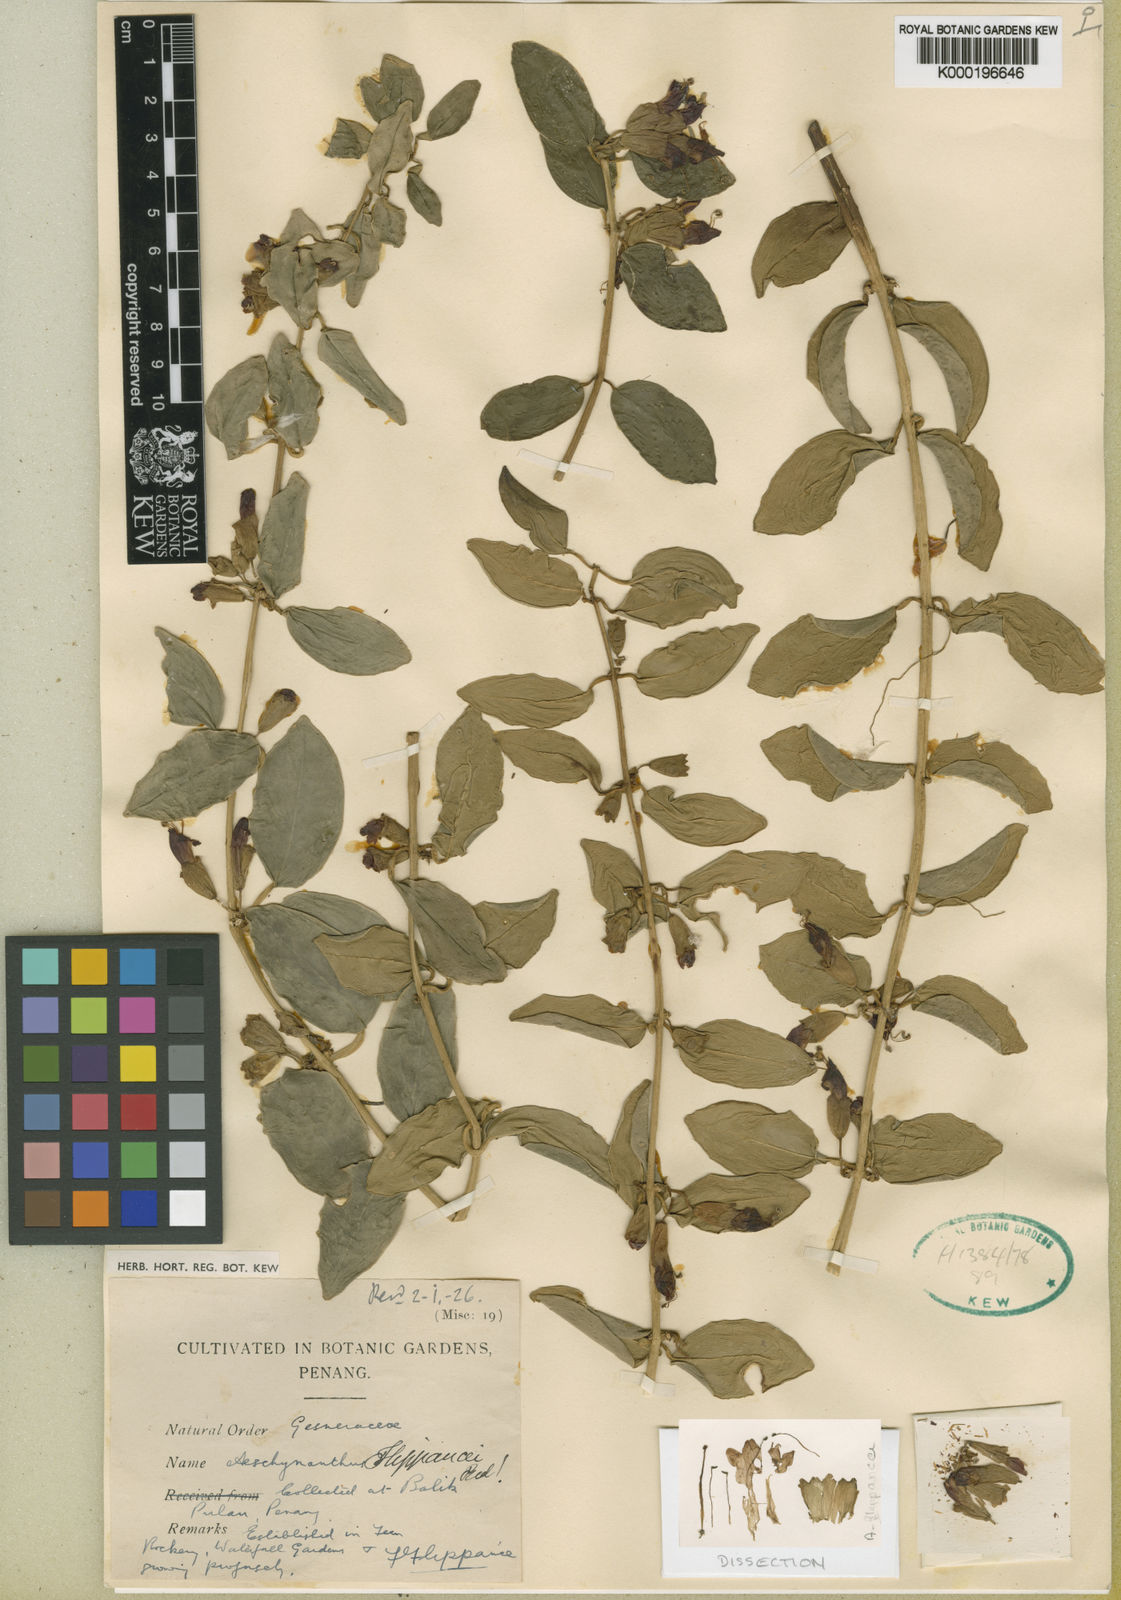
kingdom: Plantae
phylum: Tracheophyta
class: Magnoliopsida
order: Lamiales
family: Gesneriaceae
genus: Aeschynanthus
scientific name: Aeschynanthus volubilis
